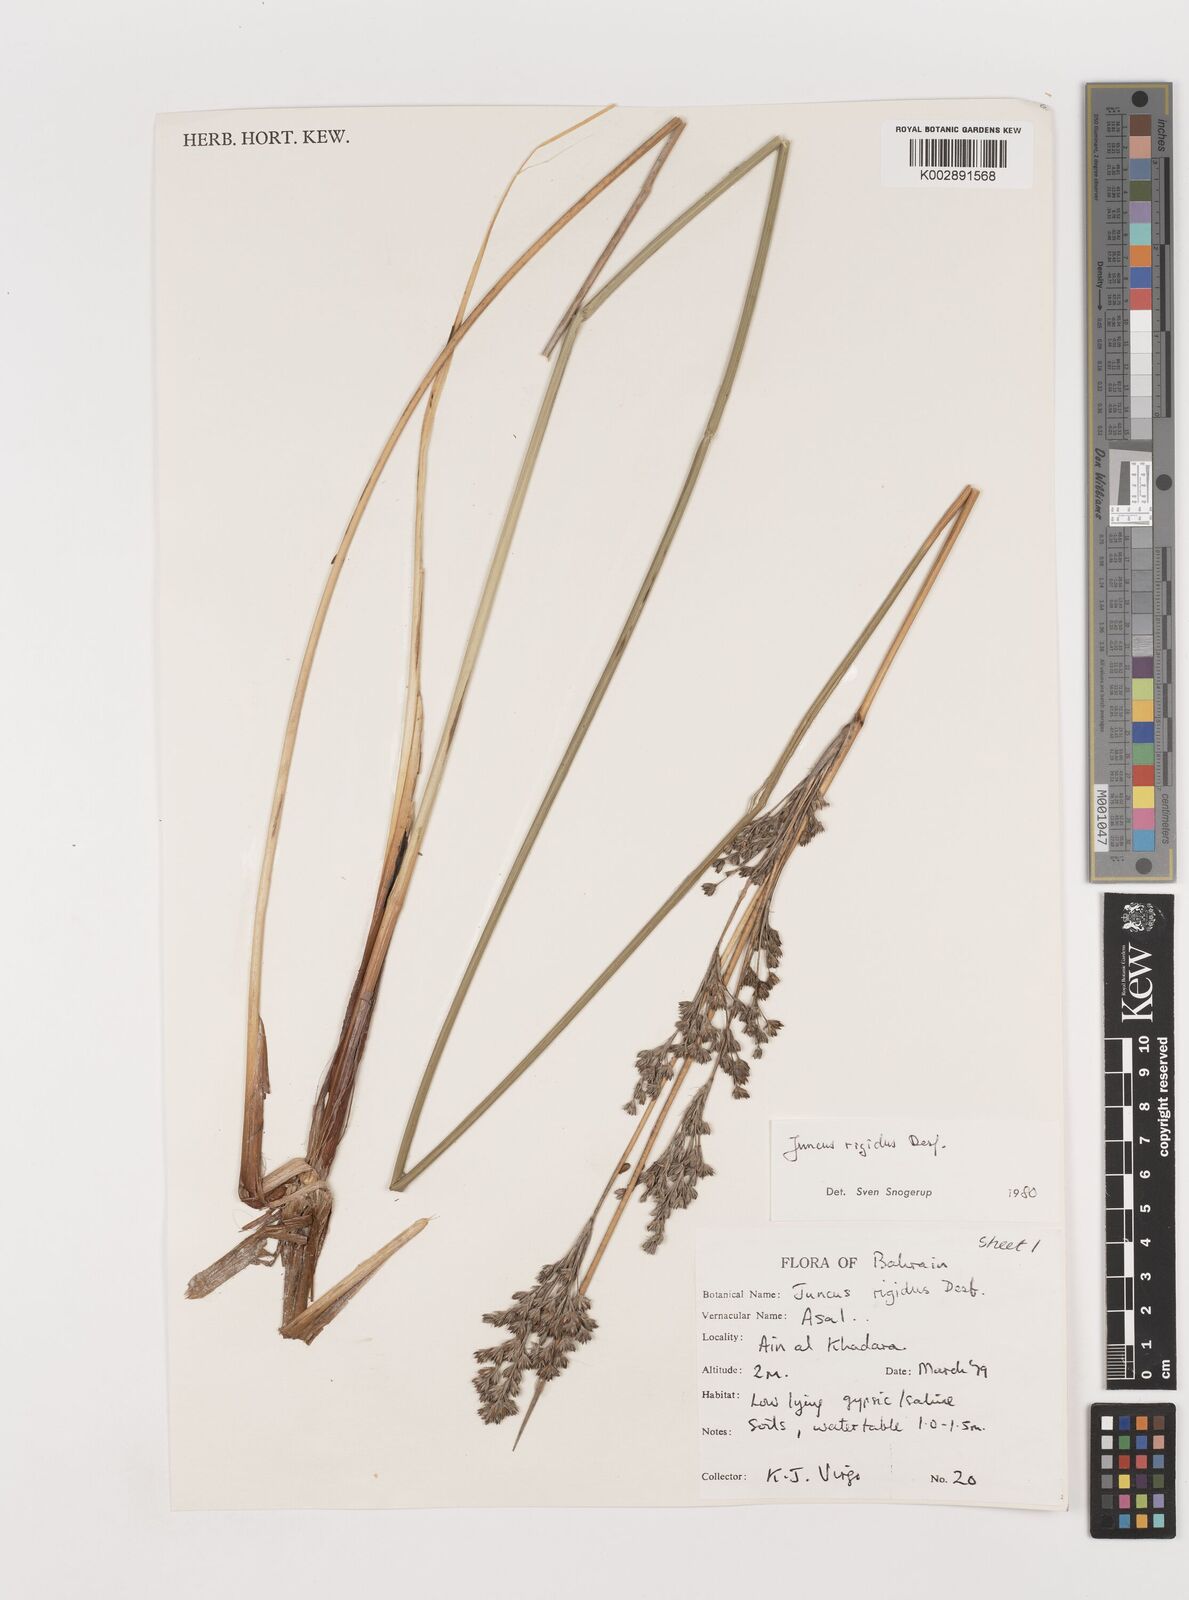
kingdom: Plantae
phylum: Tracheophyta
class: Liliopsida
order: Poales
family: Juncaceae
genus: Juncus
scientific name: Juncus rigidus
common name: Hard sea rush
